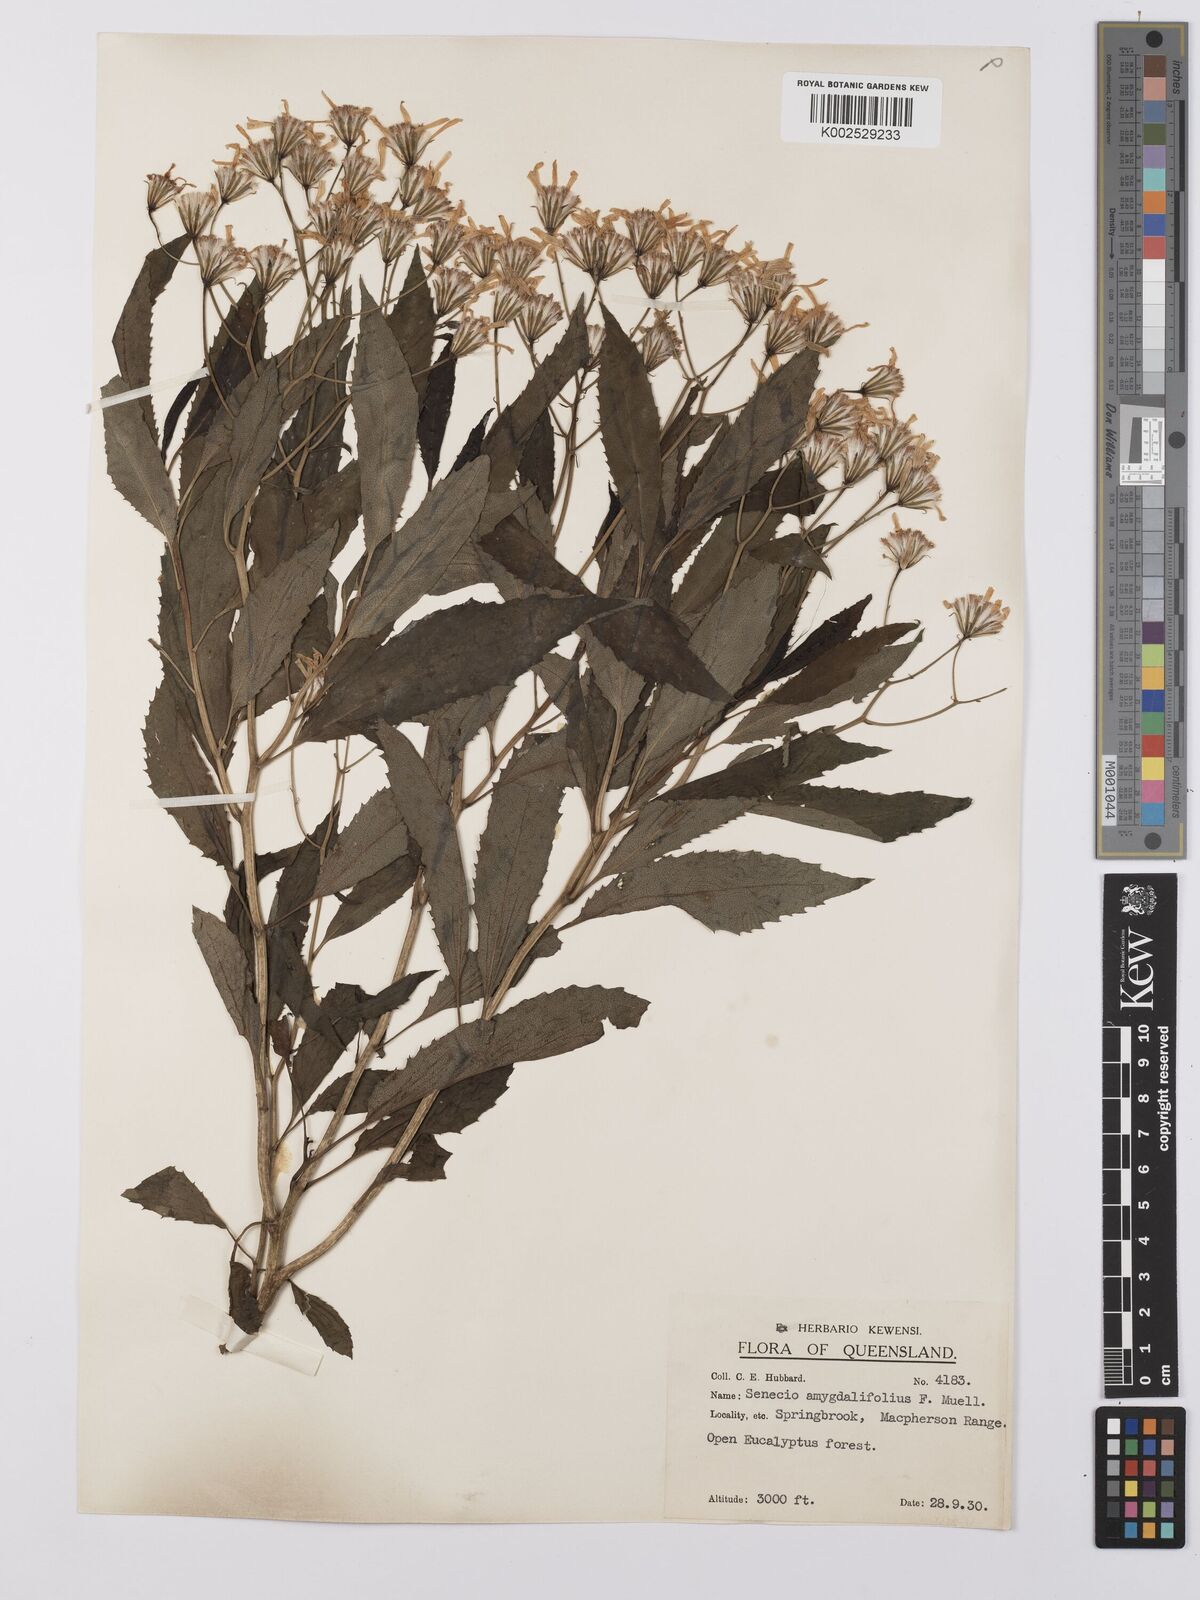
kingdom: Plantae
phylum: Tracheophyta
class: Magnoliopsida
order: Asterales
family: Asteraceae
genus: Lordhowea
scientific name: Lordhowea amygdalifolia
